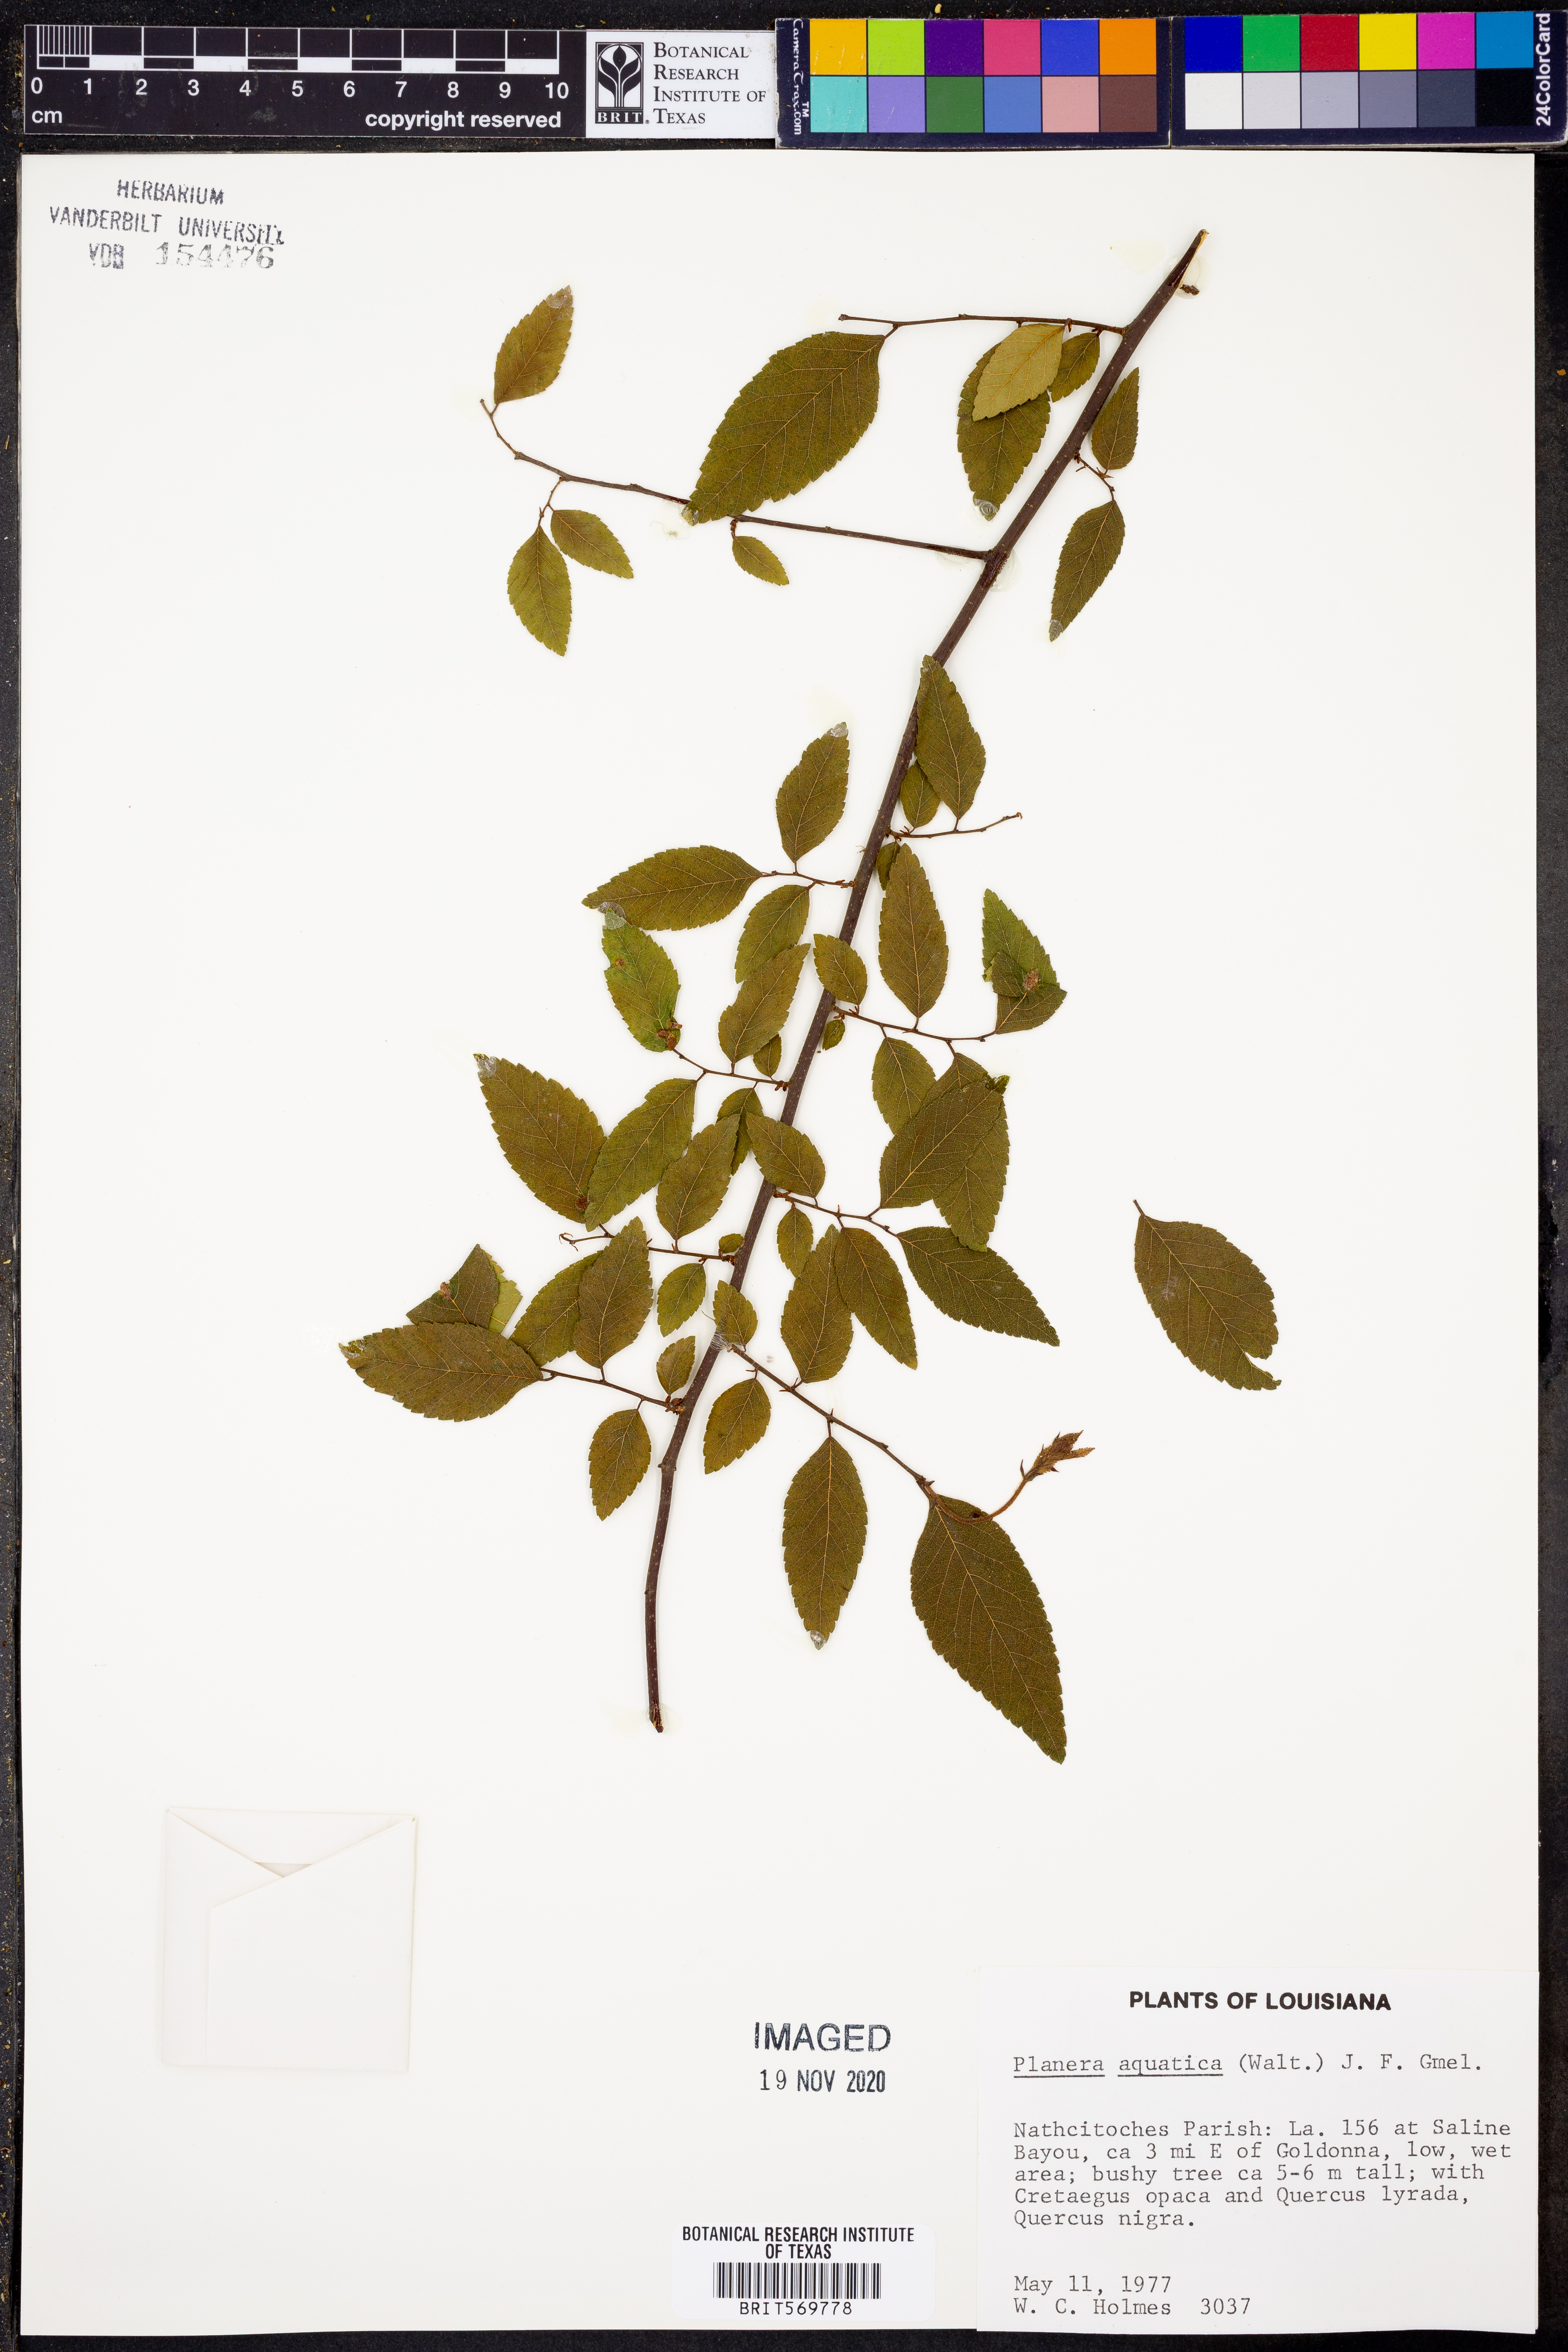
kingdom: Plantae
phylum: Tracheophyta
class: Magnoliopsida
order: Rosales
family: Ulmaceae
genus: Planera
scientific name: Planera aquatica
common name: Water-elm
